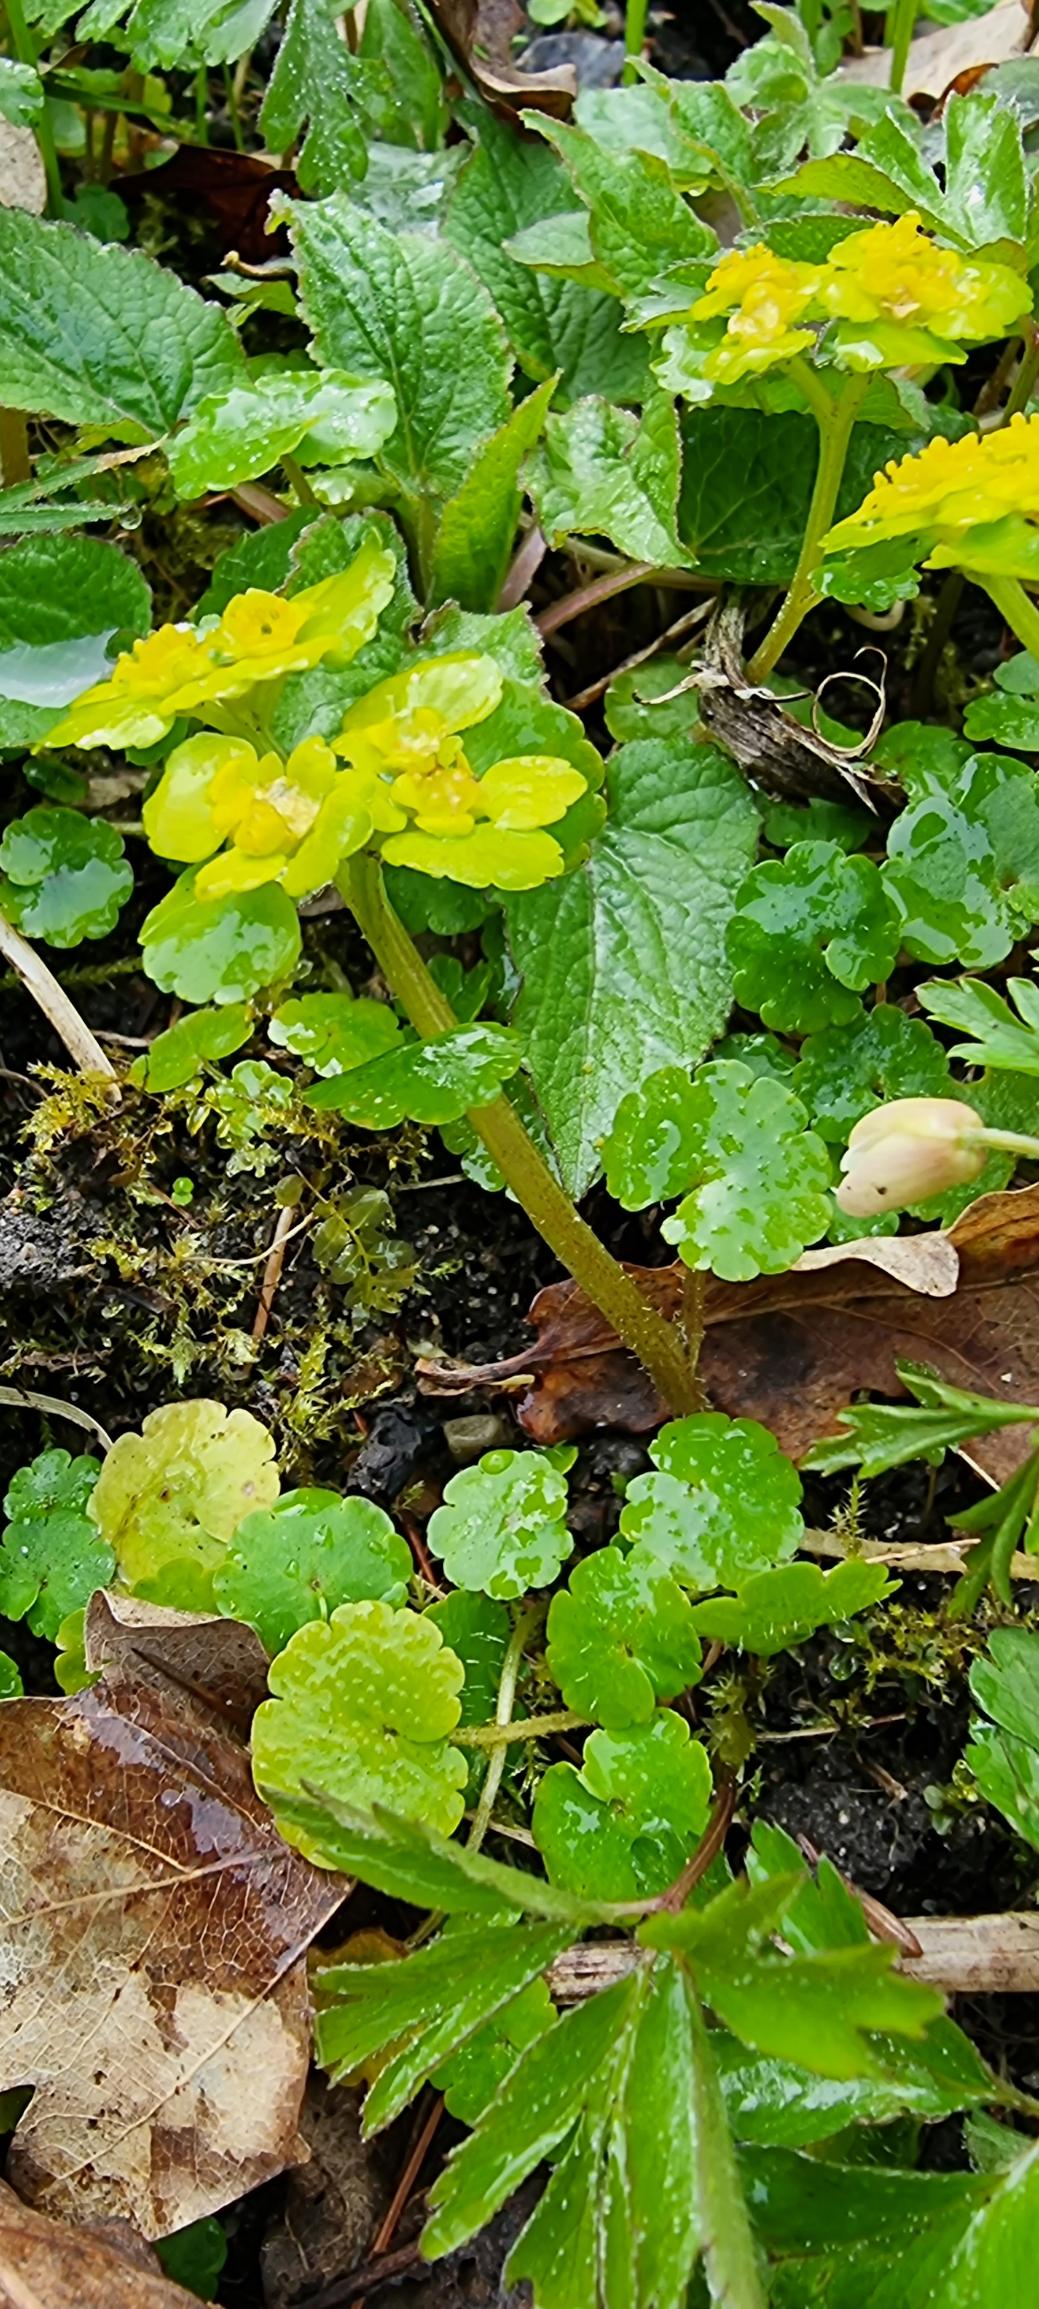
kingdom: Plantae
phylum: Tracheophyta
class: Magnoliopsida
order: Saxifragales
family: Saxifragaceae
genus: Chrysosplenium
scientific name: Chrysosplenium alternifolium
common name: Almindelig milturt
